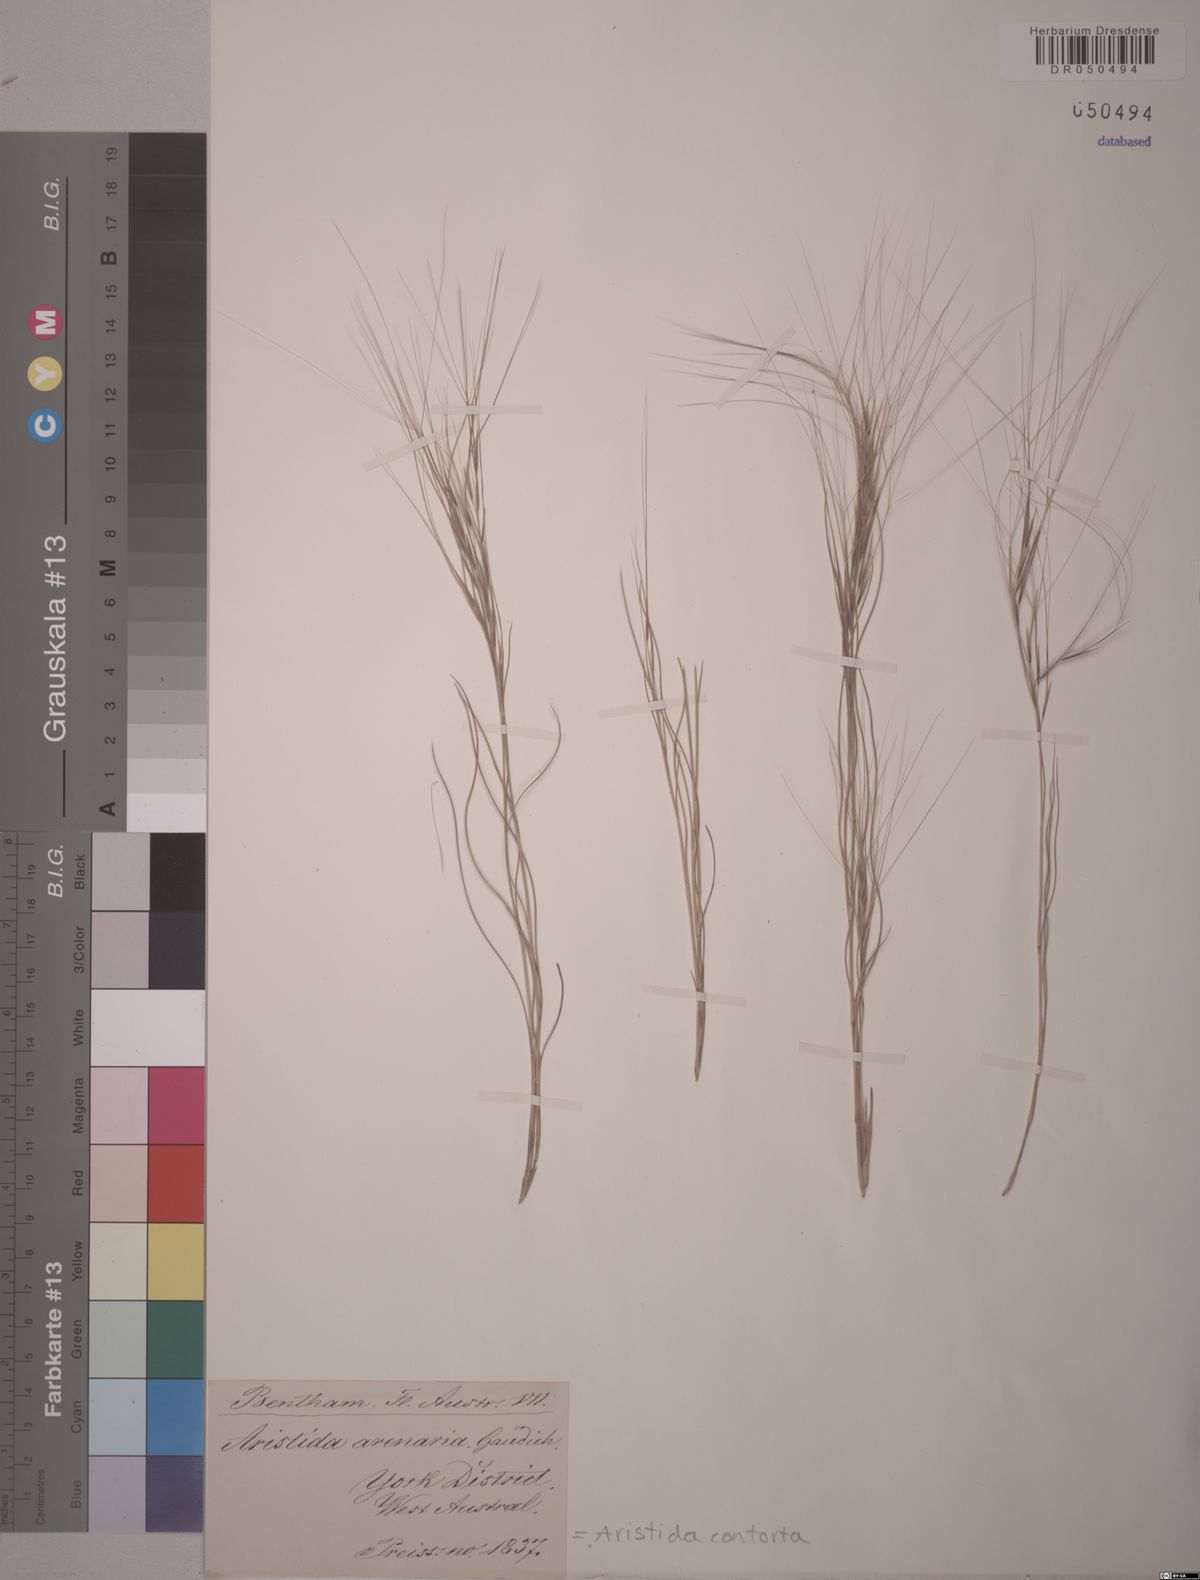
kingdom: Plantae
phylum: Tracheophyta
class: Liliopsida
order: Poales
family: Poaceae
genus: Aristida
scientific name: Aristida contorta
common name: Bunch kerosene grass
